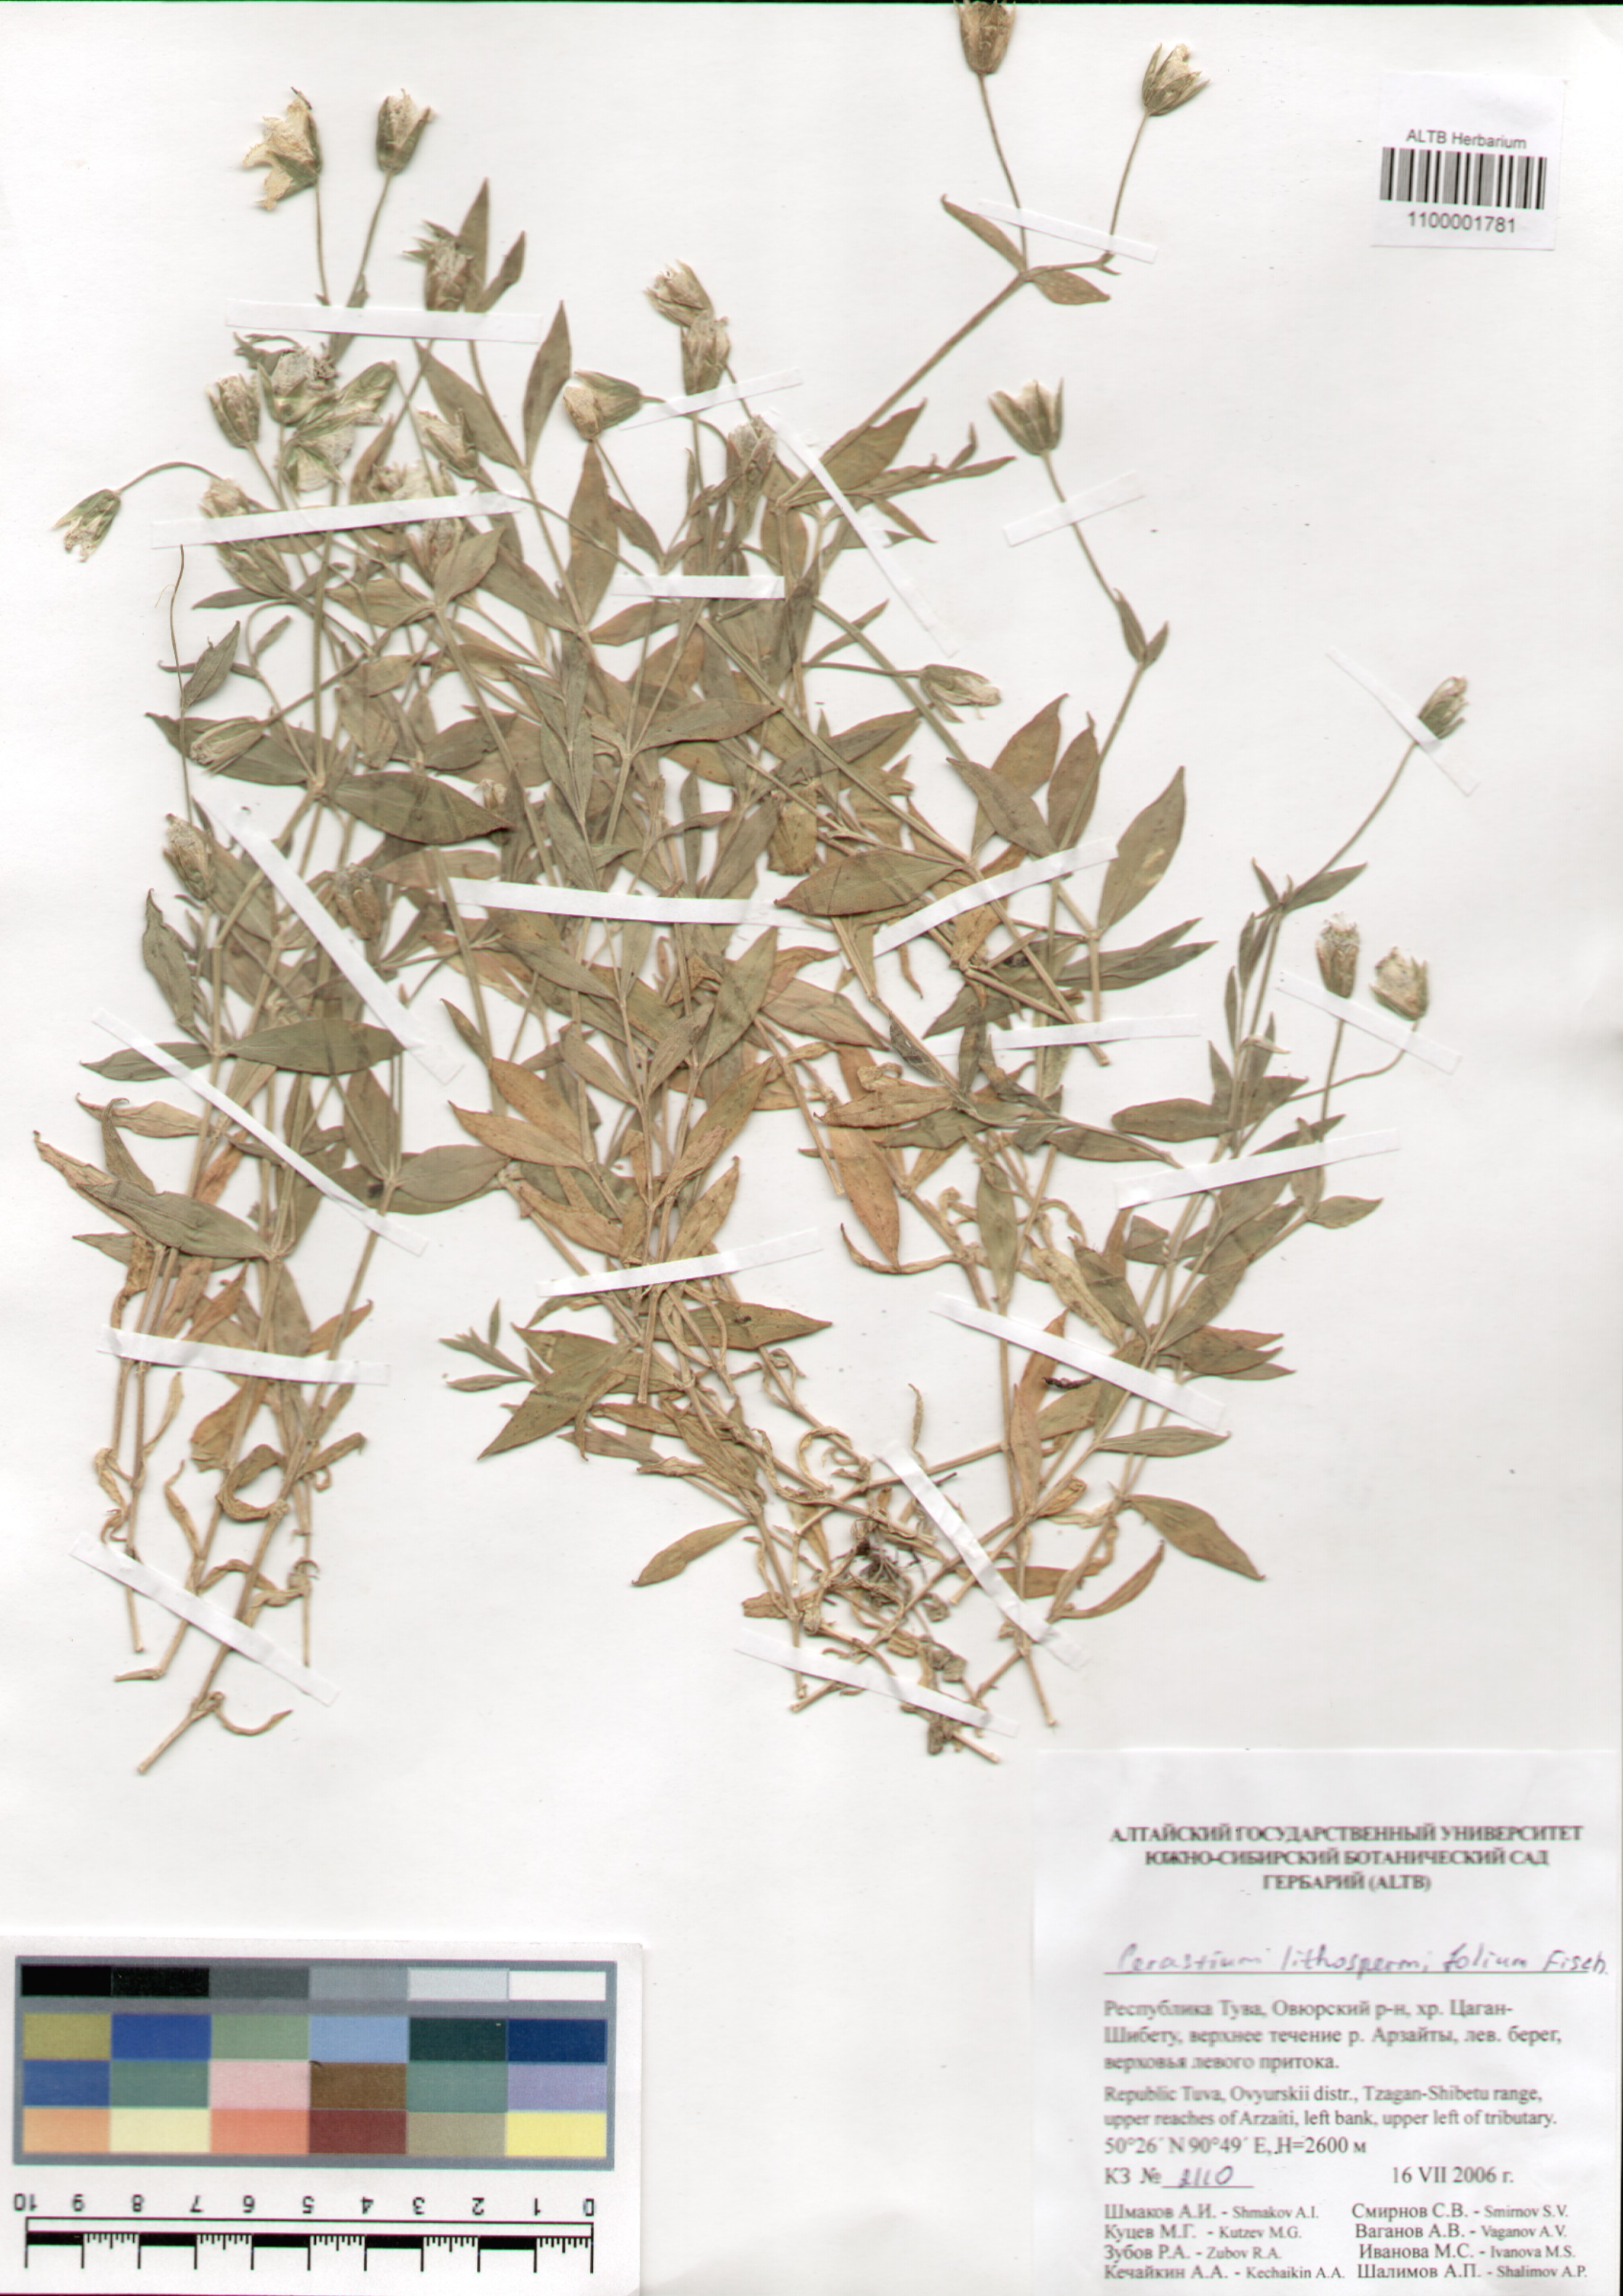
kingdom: Plantae
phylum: Tracheophyta
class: Magnoliopsida
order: Caryophyllales
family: Caryophyllaceae
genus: Cerastium
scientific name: Cerastium lithospermifolium
